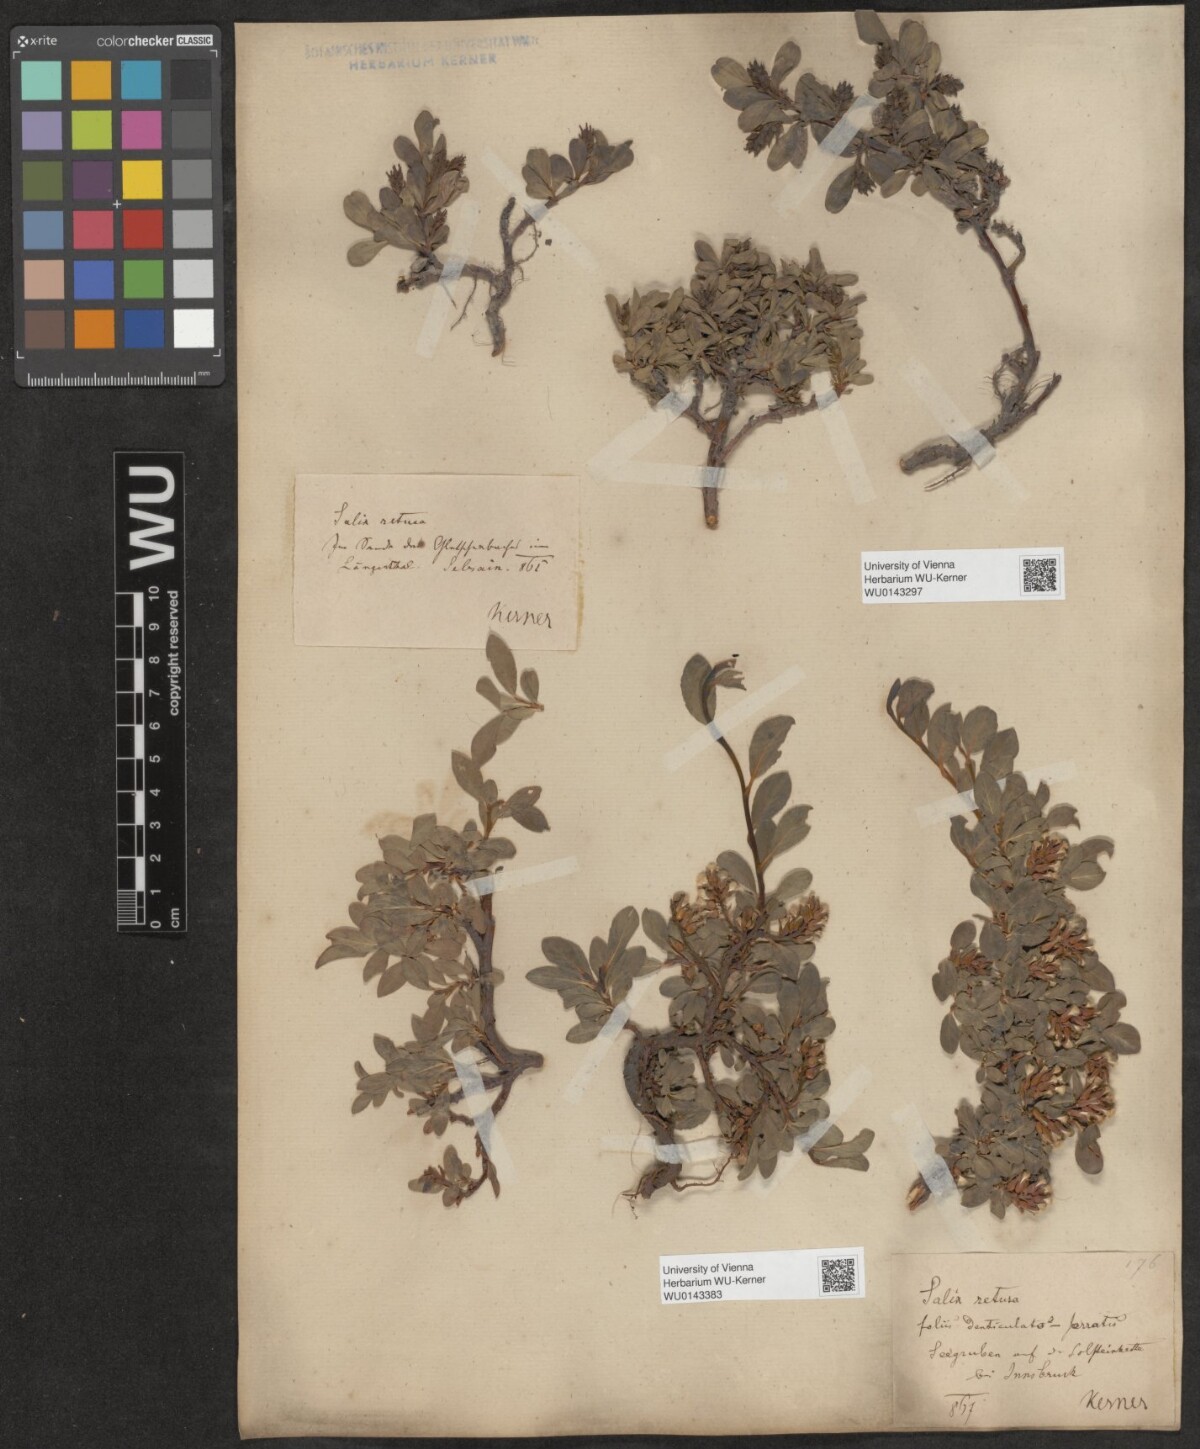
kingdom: Plantae
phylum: Tracheophyta
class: Magnoliopsida
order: Malpighiales
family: Salicaceae
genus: Salix
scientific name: Salix retusa
